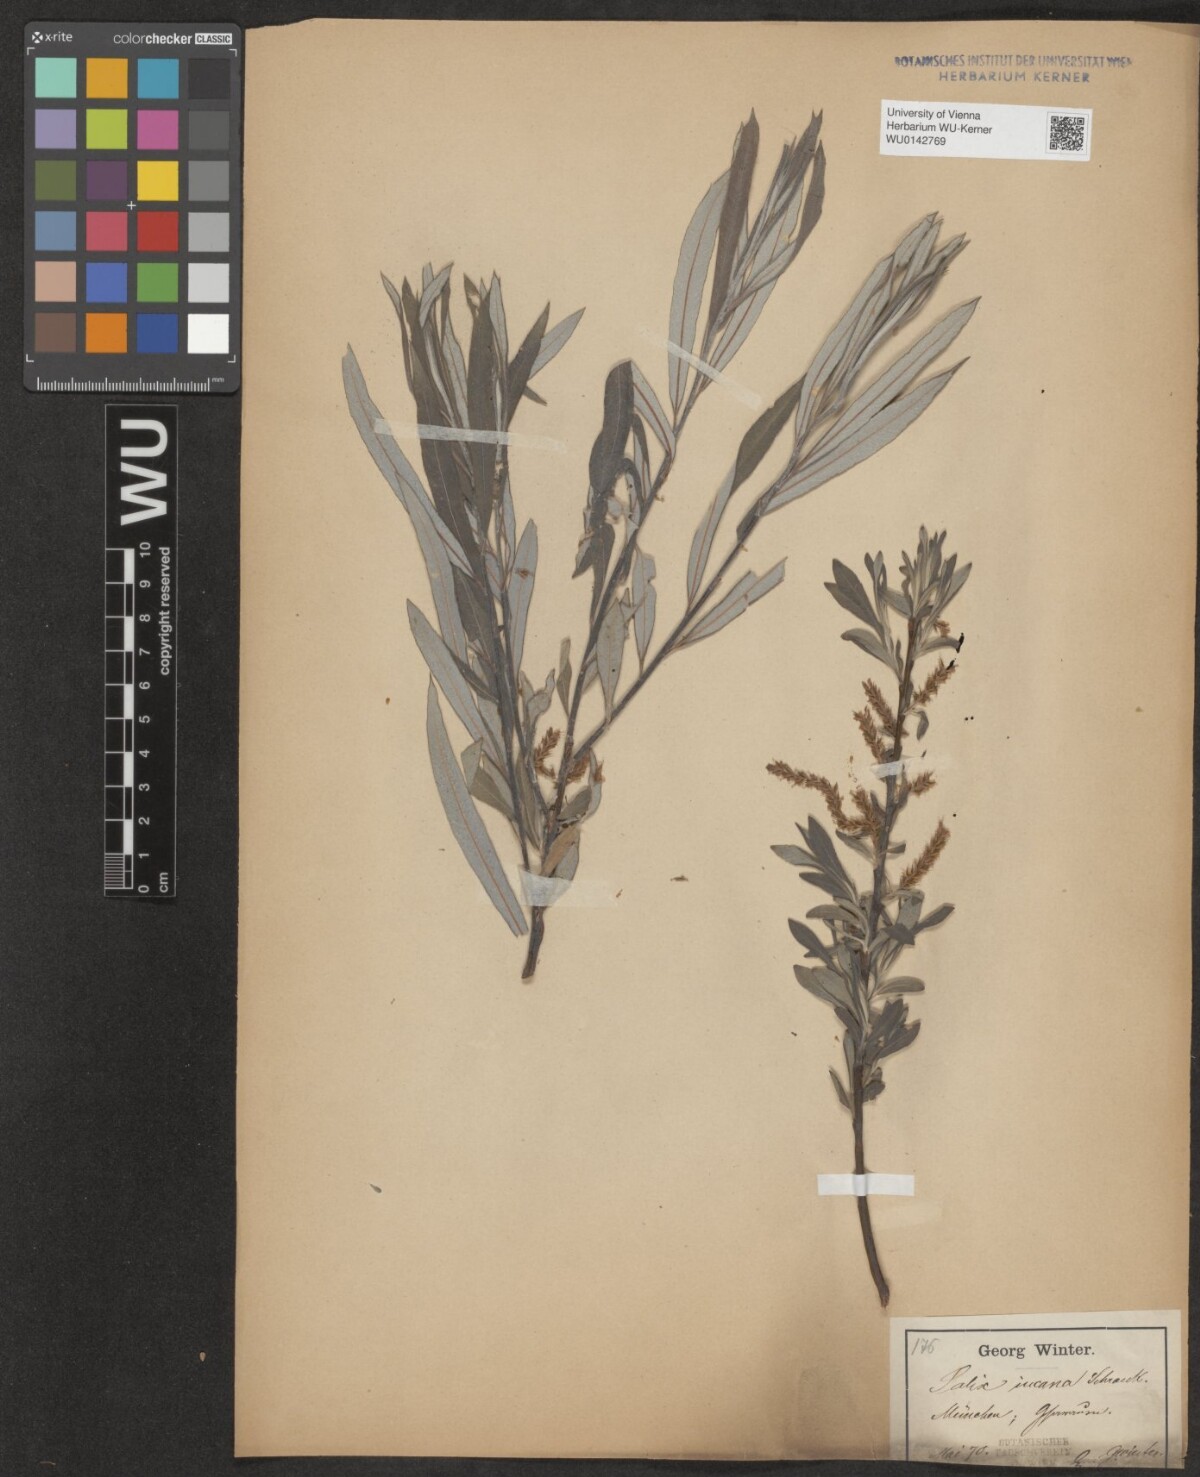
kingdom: Plantae
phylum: Tracheophyta
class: Magnoliopsida
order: Malpighiales
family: Salicaceae
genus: Salix
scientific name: Salix eleagnos
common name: Elaeagnus willow
